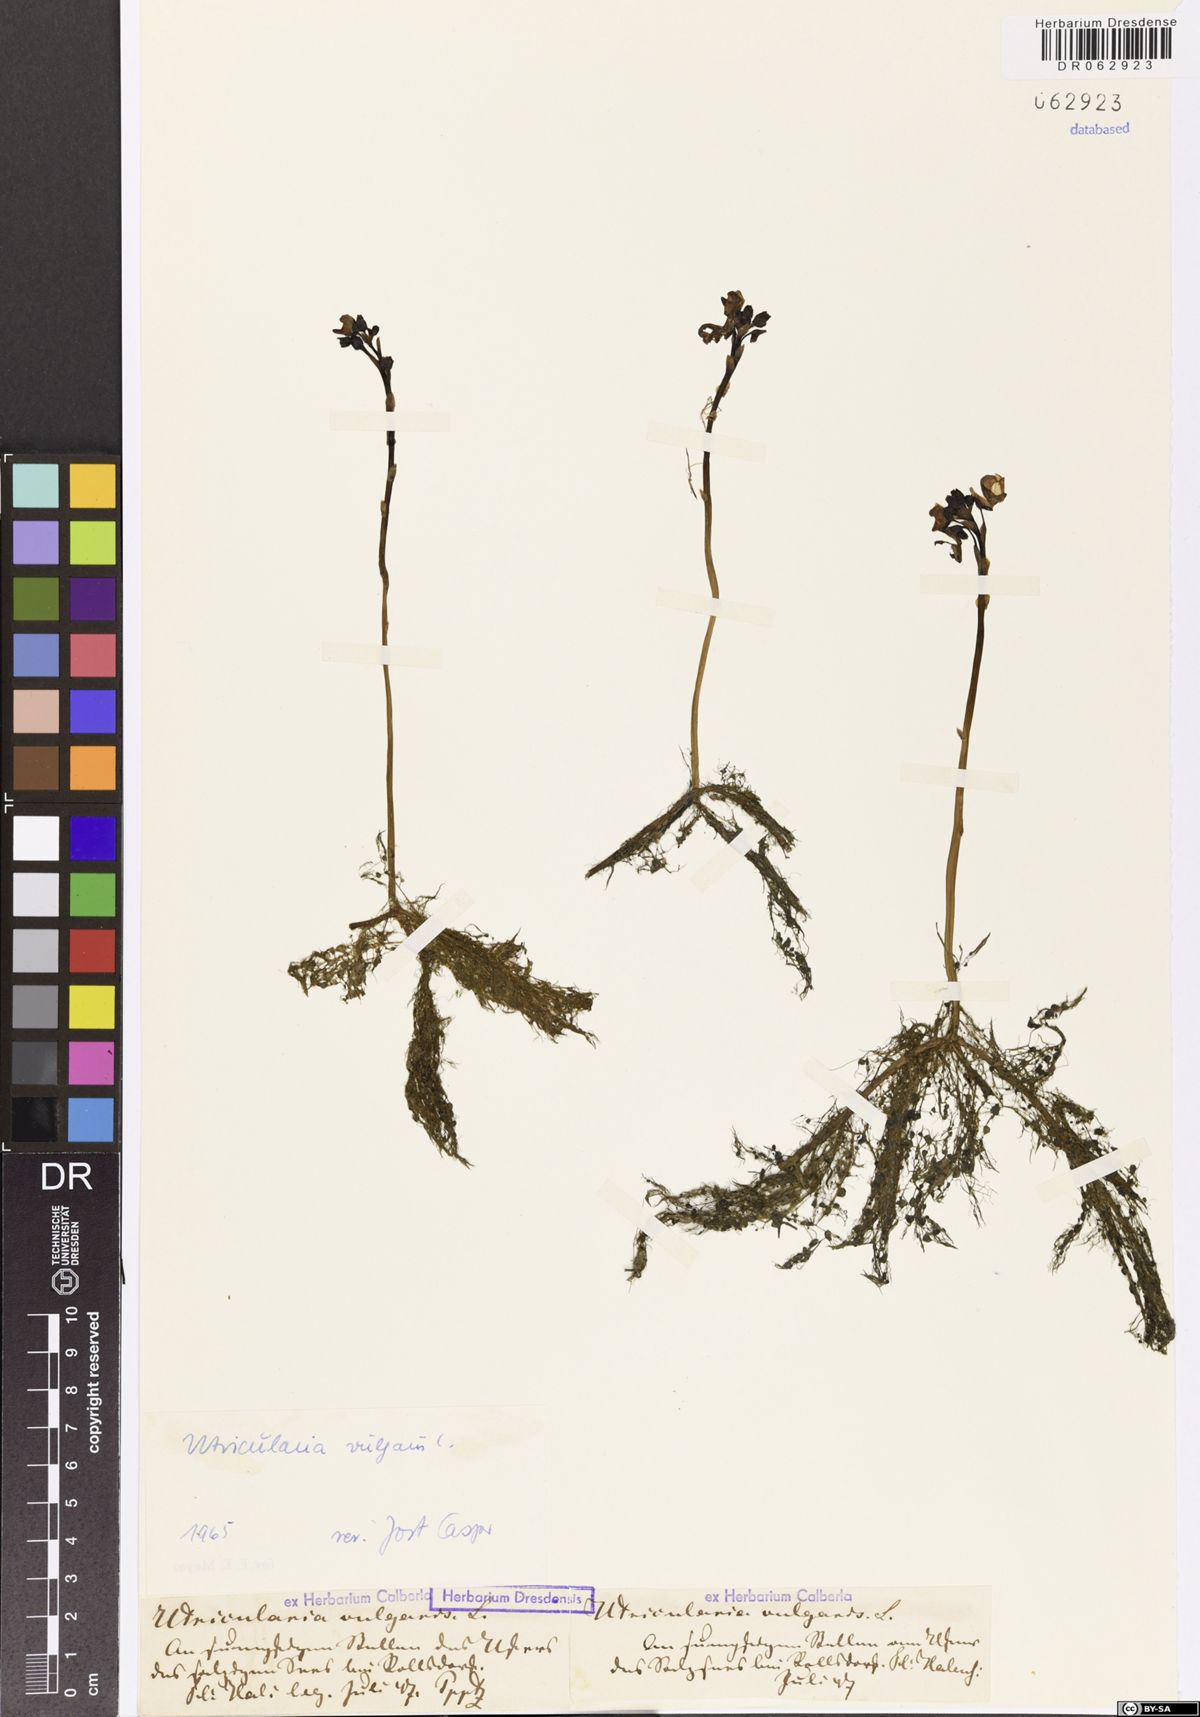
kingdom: Plantae
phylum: Tracheophyta
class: Magnoliopsida
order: Lamiales
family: Lentibulariaceae
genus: Utricularia
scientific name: Utricularia vulgaris
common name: Greater bladderwort
